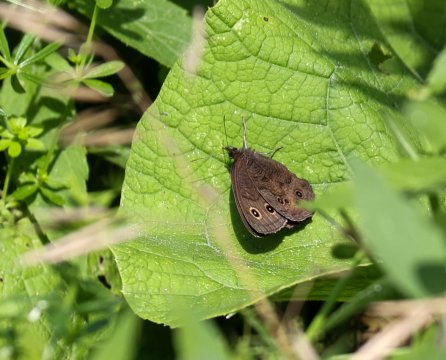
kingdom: Animalia
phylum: Arthropoda
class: Insecta
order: Lepidoptera
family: Nymphalidae
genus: Cercyonis
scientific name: Cercyonis pegala
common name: Common Wood-Nymph
